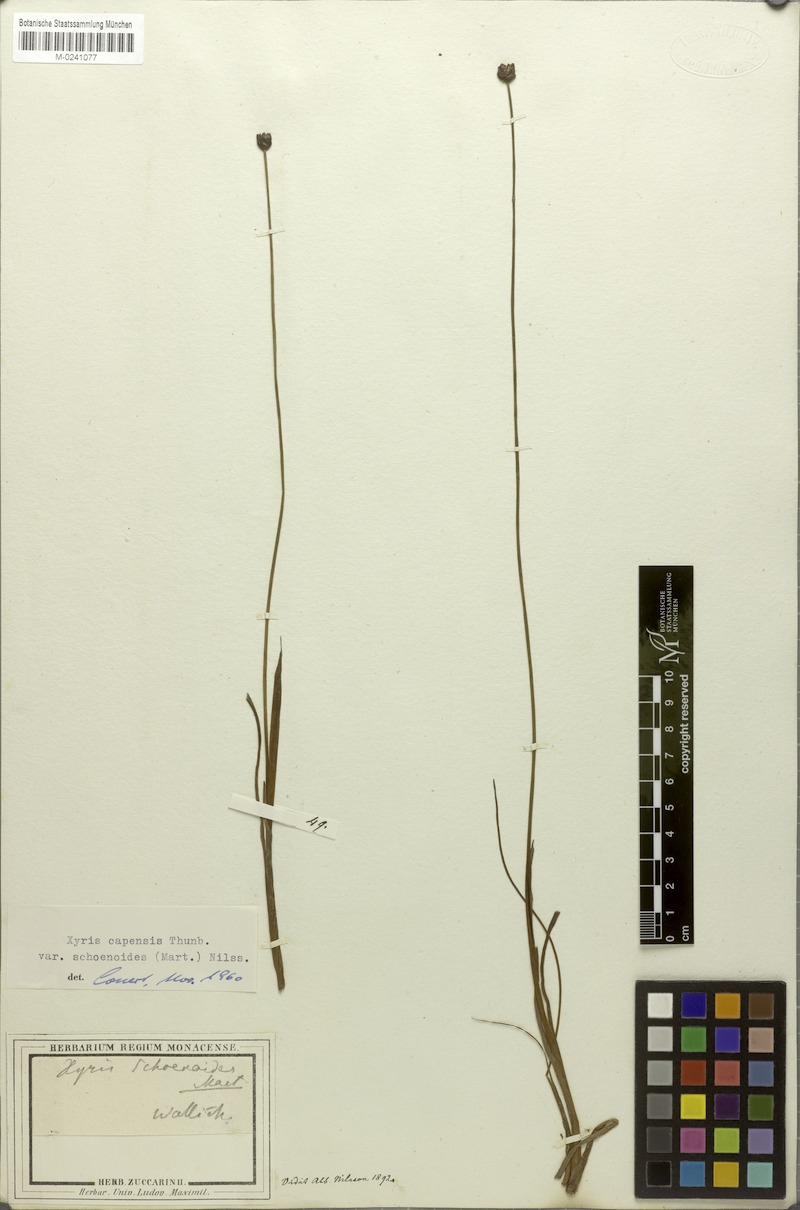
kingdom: Plantae
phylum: Tracheophyta
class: Liliopsida
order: Poales
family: Xyridaceae
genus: Xyris
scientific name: Xyris capensis
